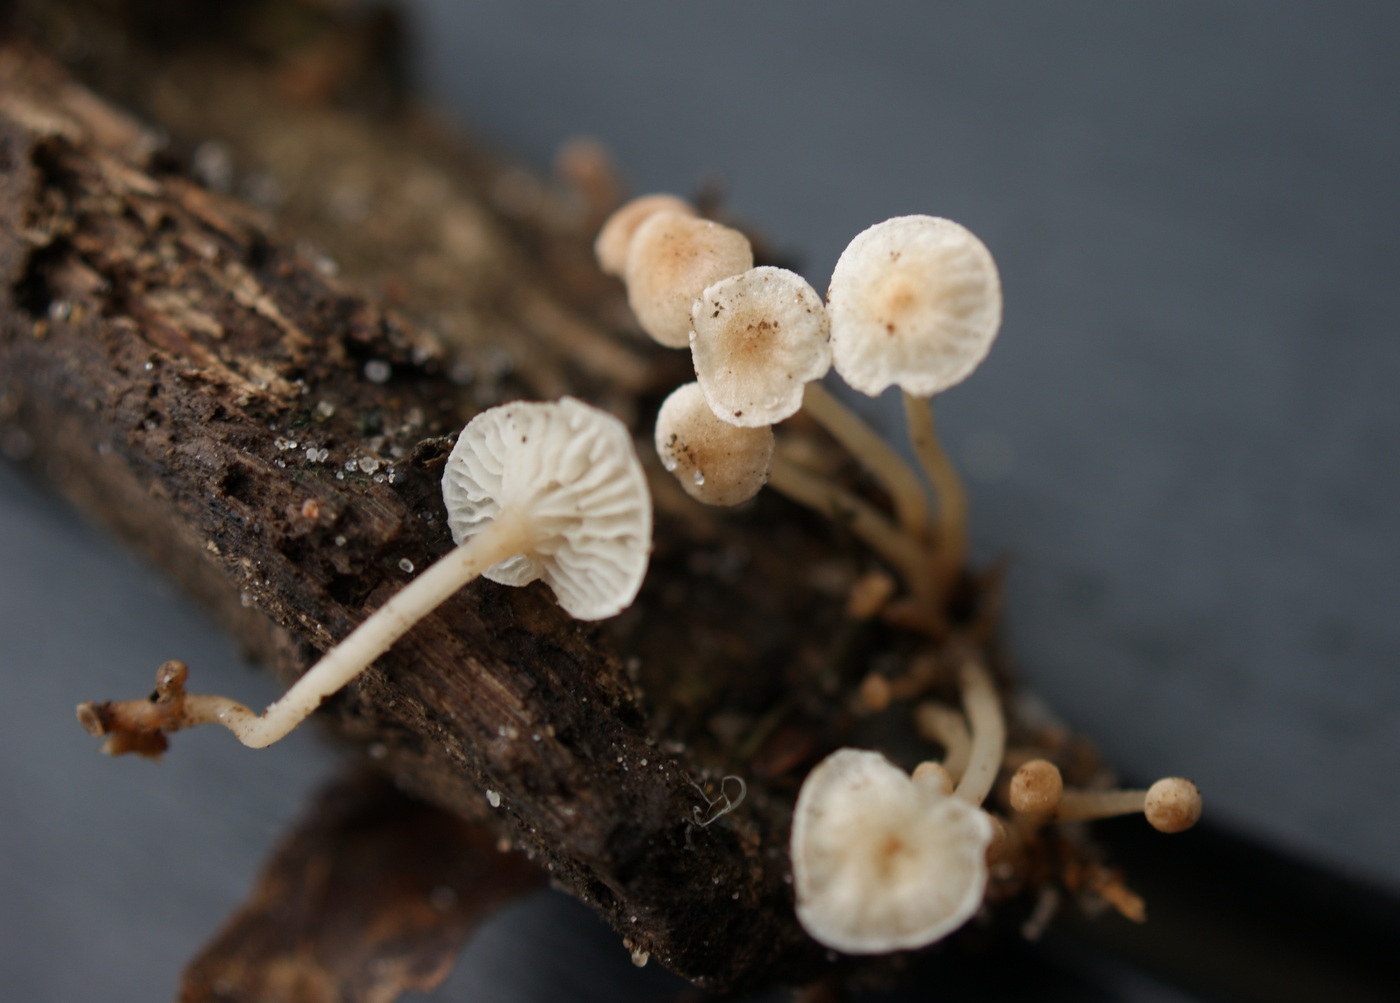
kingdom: Fungi
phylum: Basidiomycota
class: Agaricomycetes
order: Agaricales
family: Omphalotaceae
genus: Collybiopsis
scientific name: Collybiopsis ramealis
